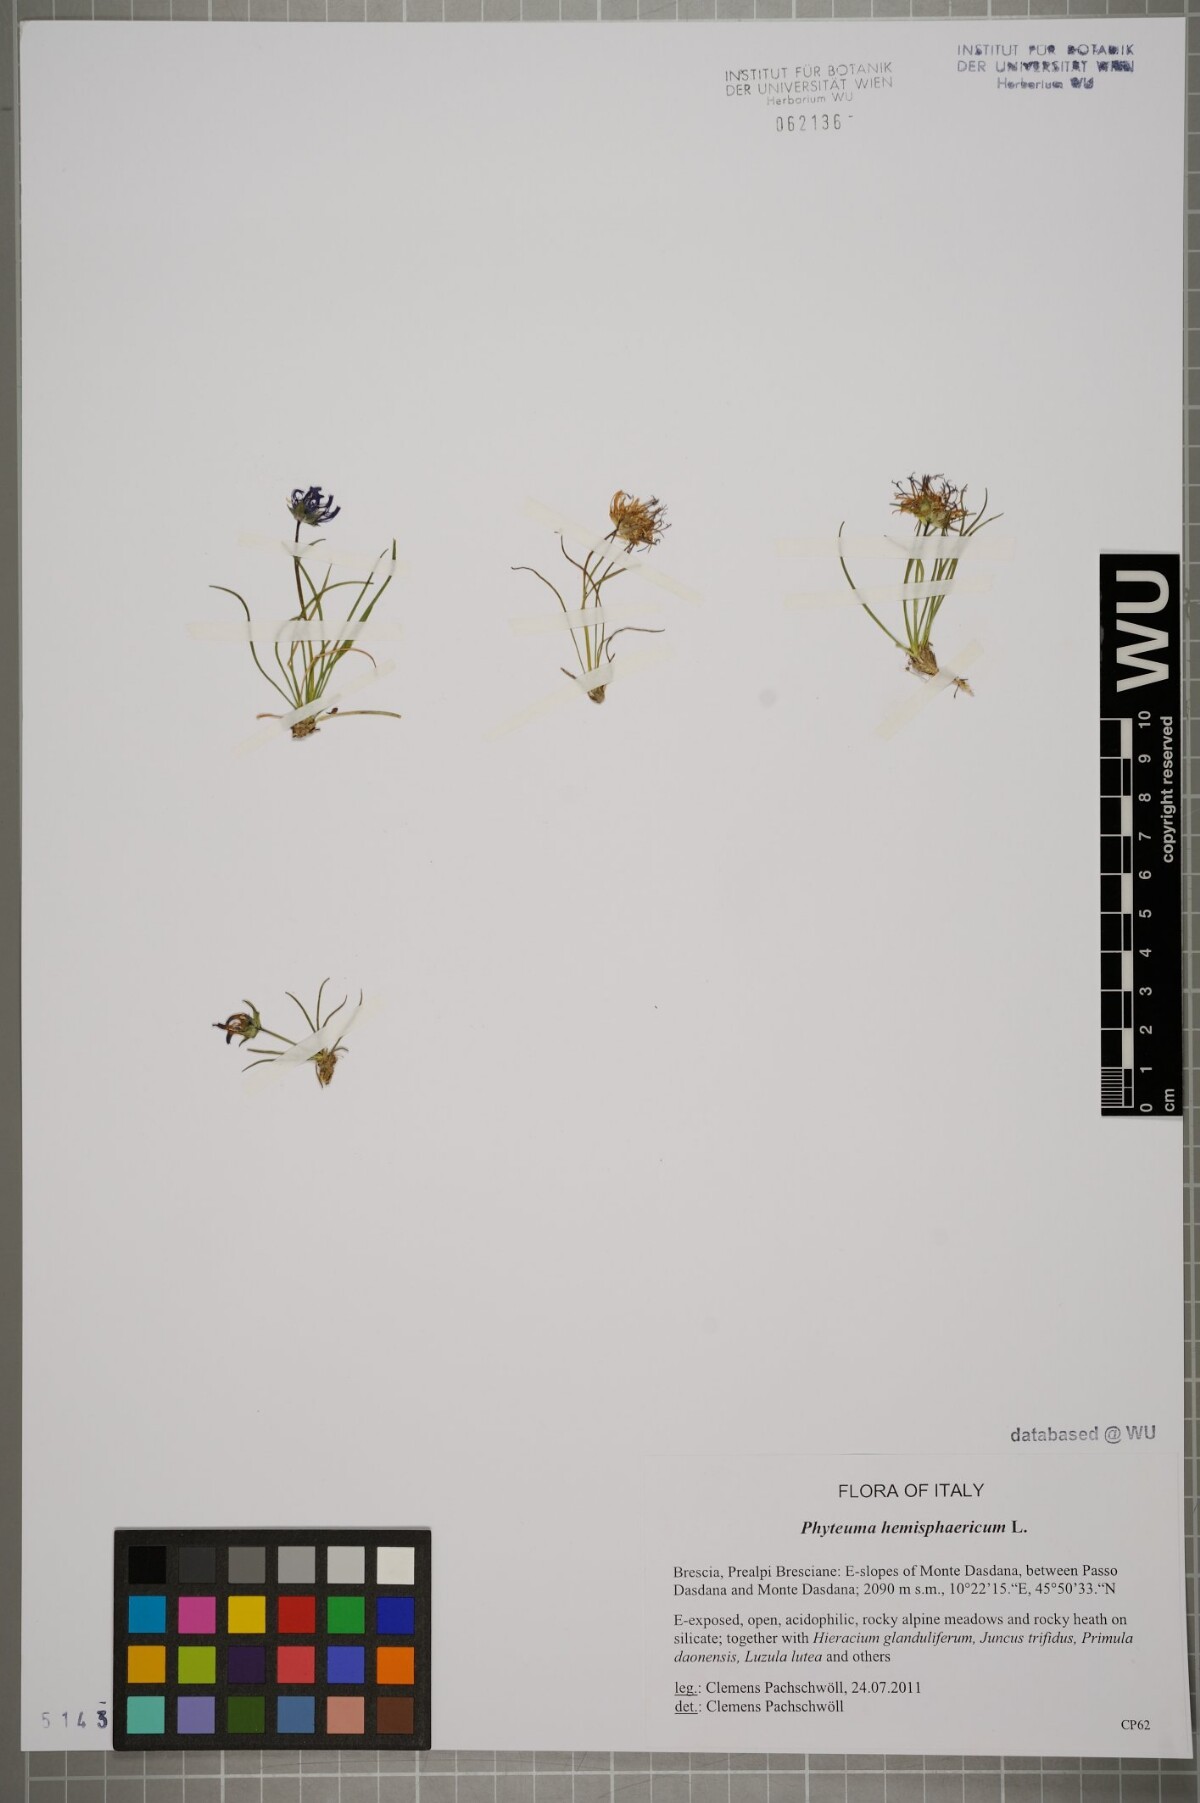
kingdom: Plantae
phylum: Tracheophyta
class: Magnoliopsida
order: Asterales
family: Campanulaceae
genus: Phyteuma
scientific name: Phyteuma hemisphaericum
